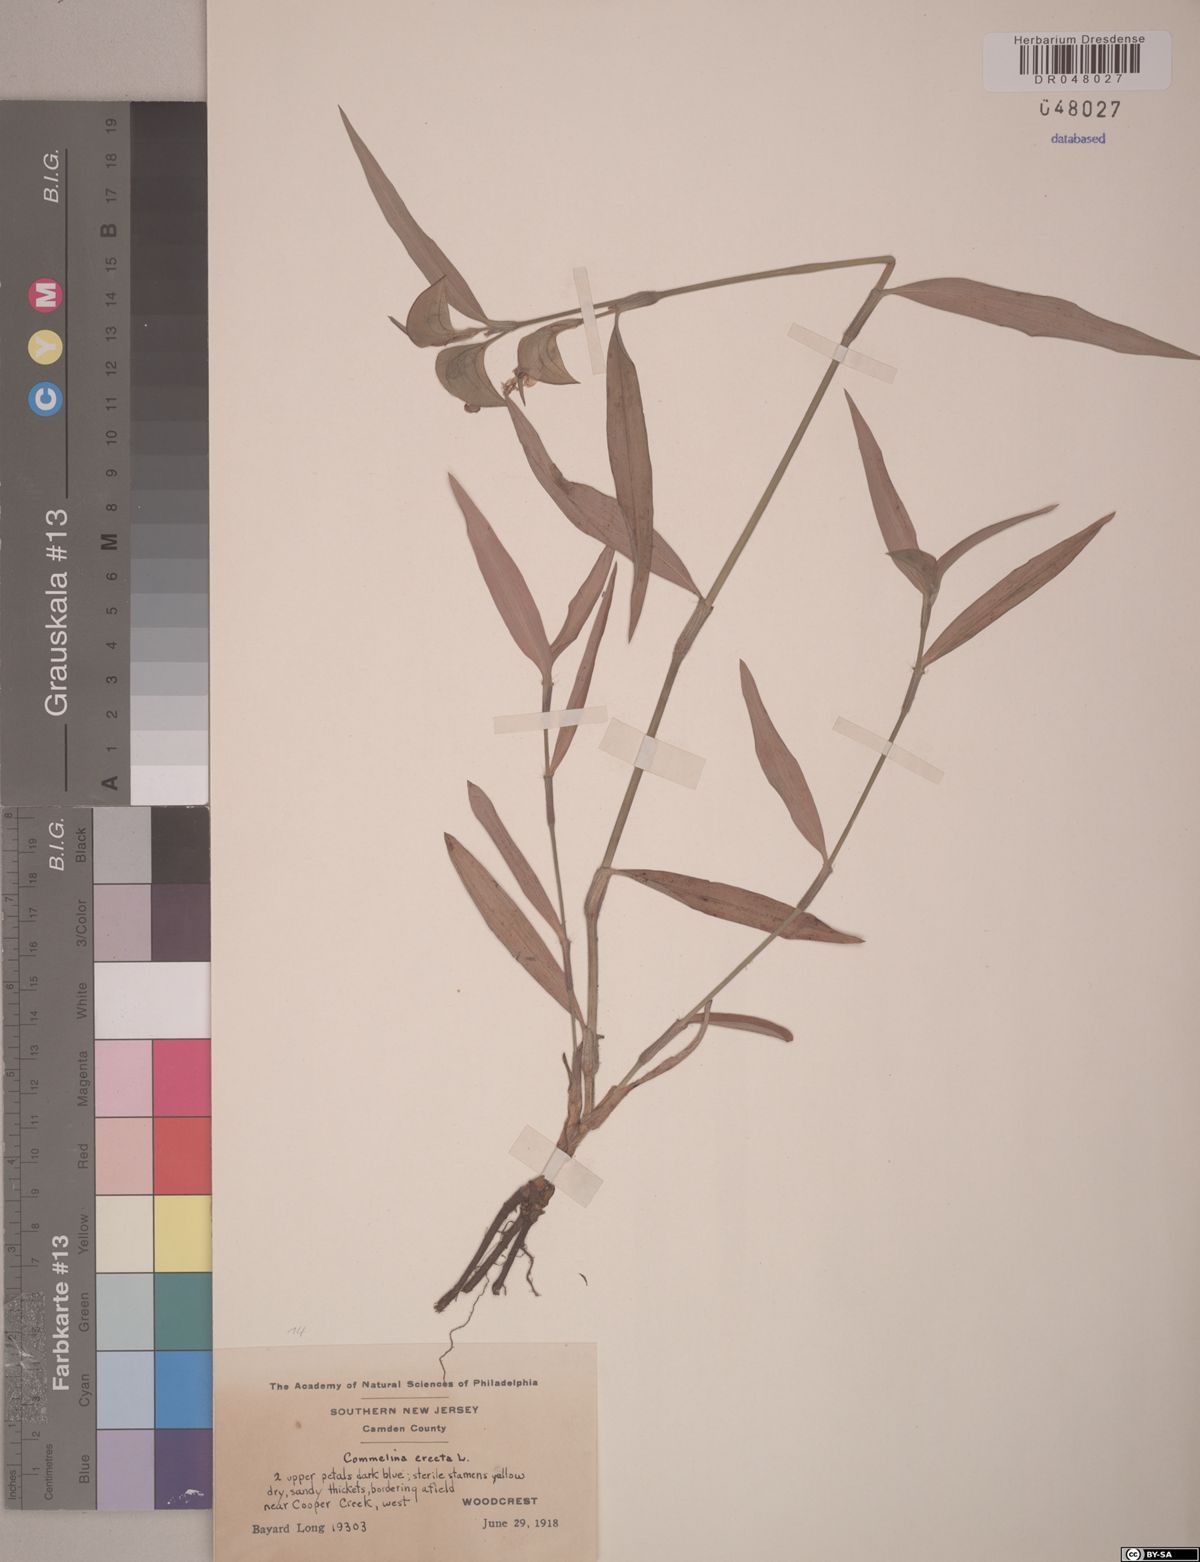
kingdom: Plantae
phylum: Tracheophyta
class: Liliopsida
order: Commelinales
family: Commelinaceae
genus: Commelina
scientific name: Commelina erecta
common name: Blousel blommetjie
